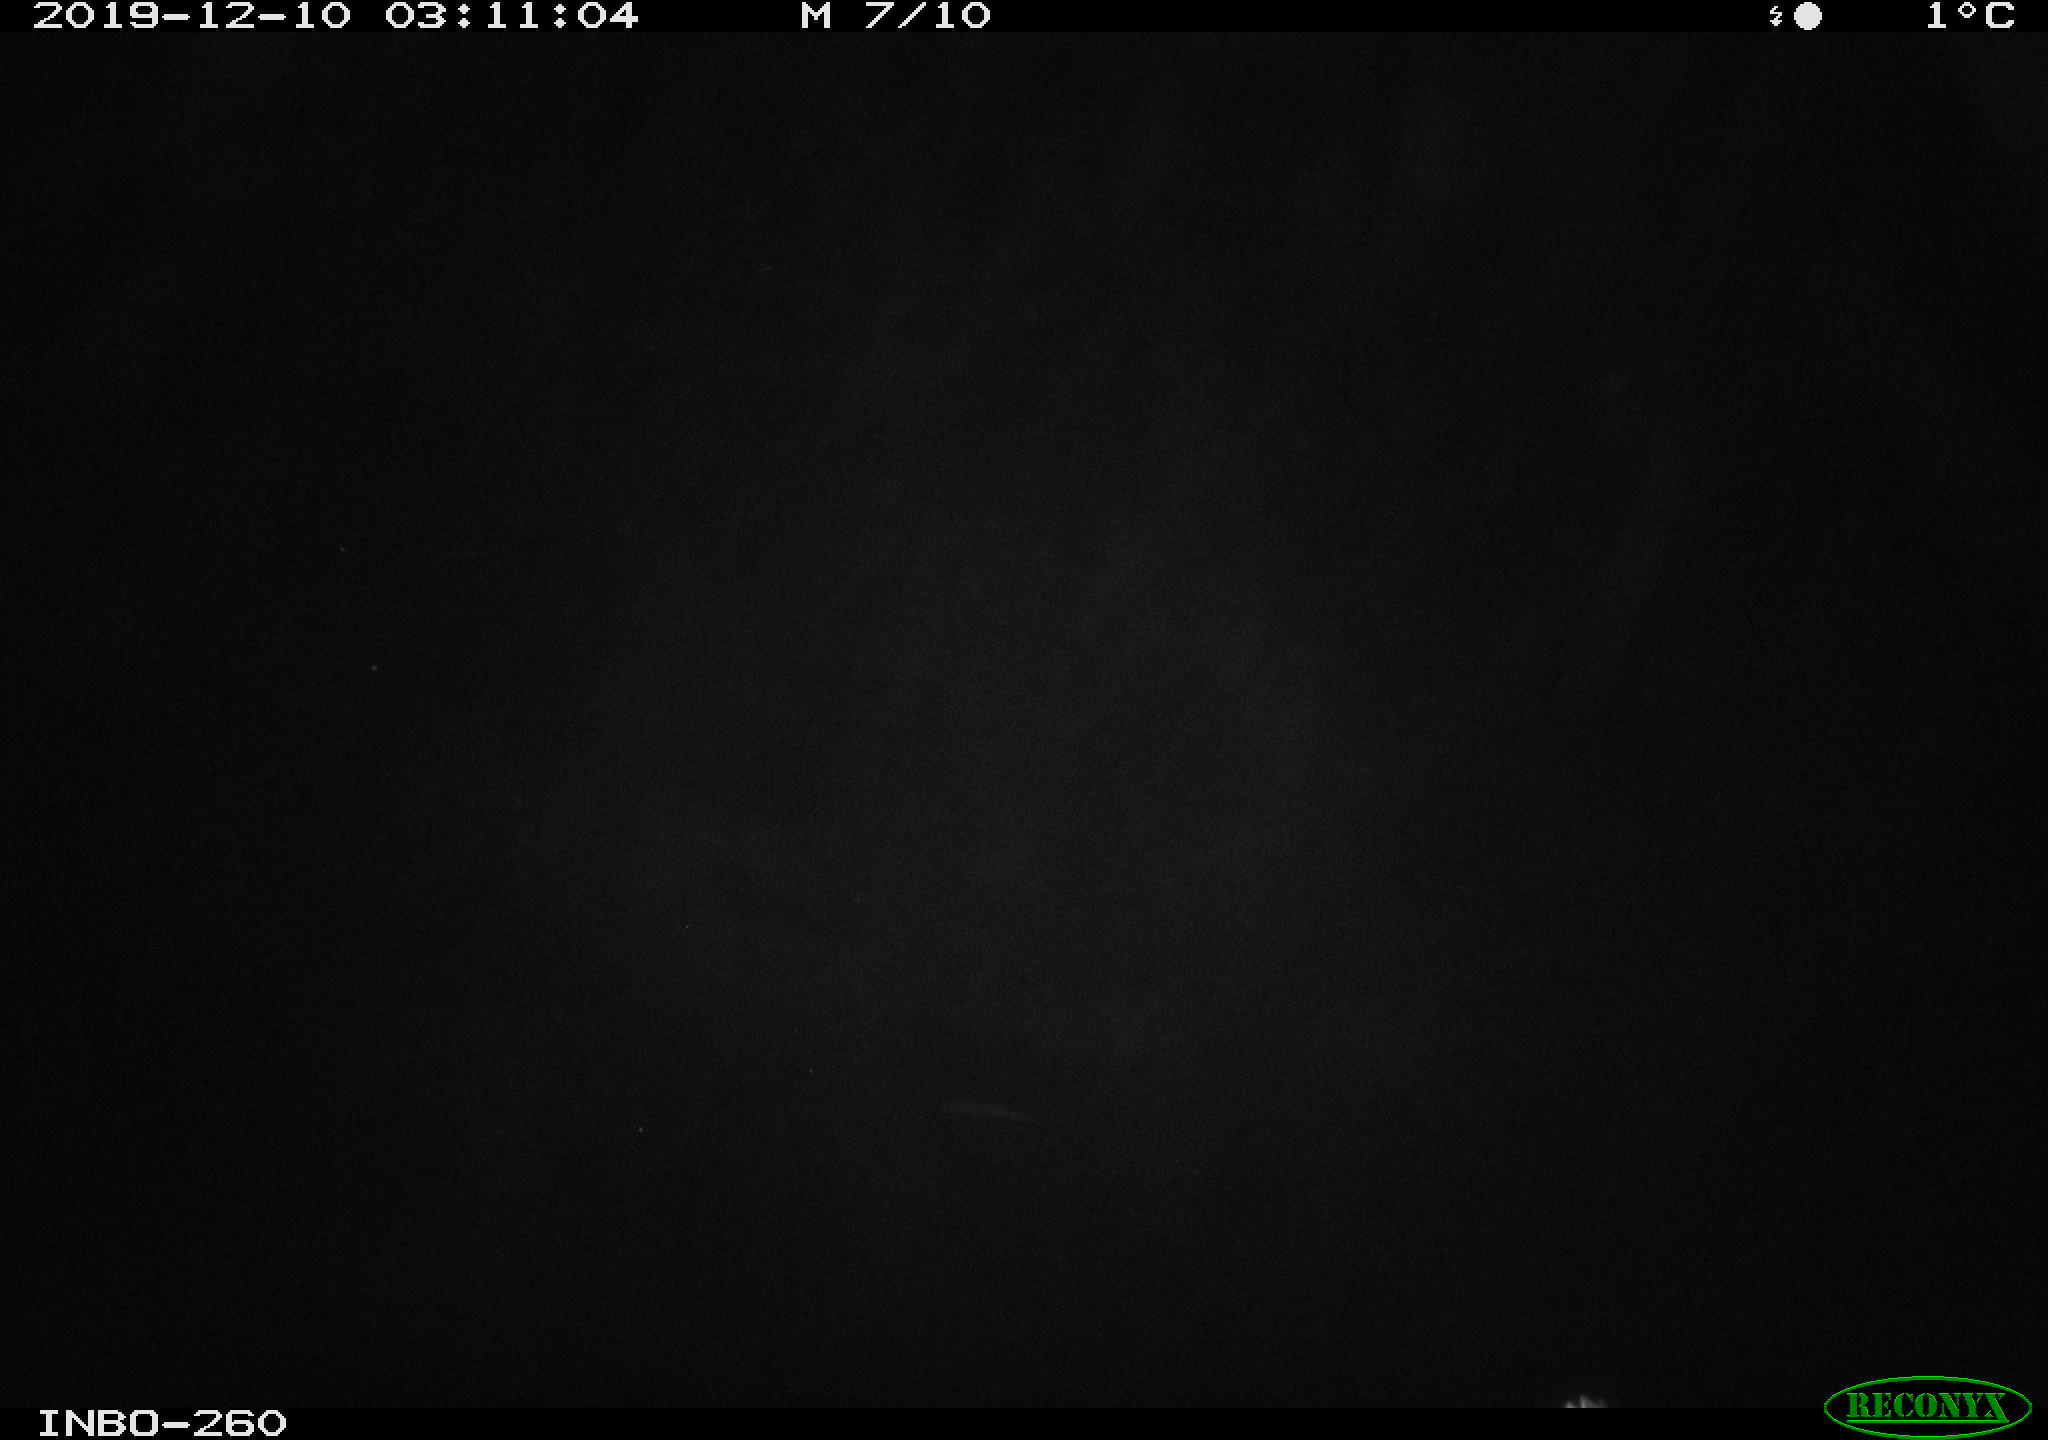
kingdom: Animalia
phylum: Chordata
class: Aves
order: Anseriformes
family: Anatidae
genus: Anas
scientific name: Anas platyrhynchos
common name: Mallard
